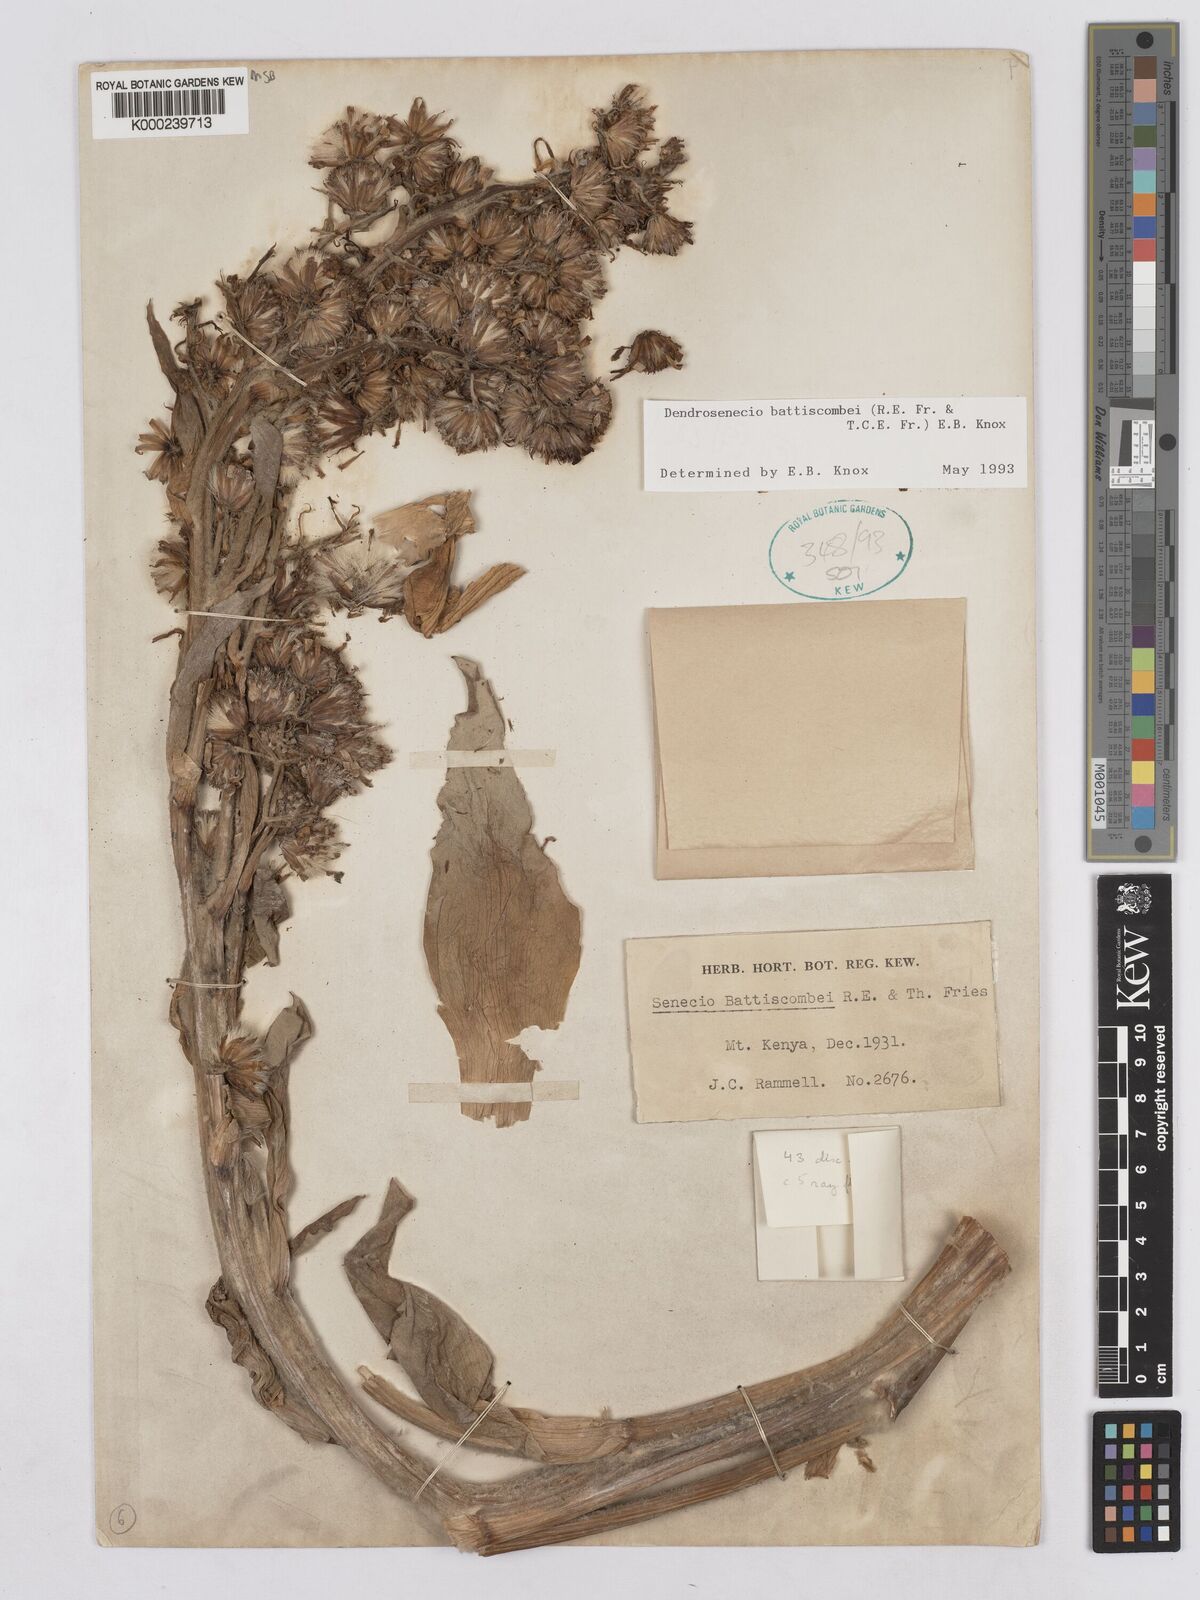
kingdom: Plantae
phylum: Tracheophyta
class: Magnoliopsida
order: Asterales
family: Asteraceae
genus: Dendrosenecio
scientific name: Dendrosenecio battiscombei
